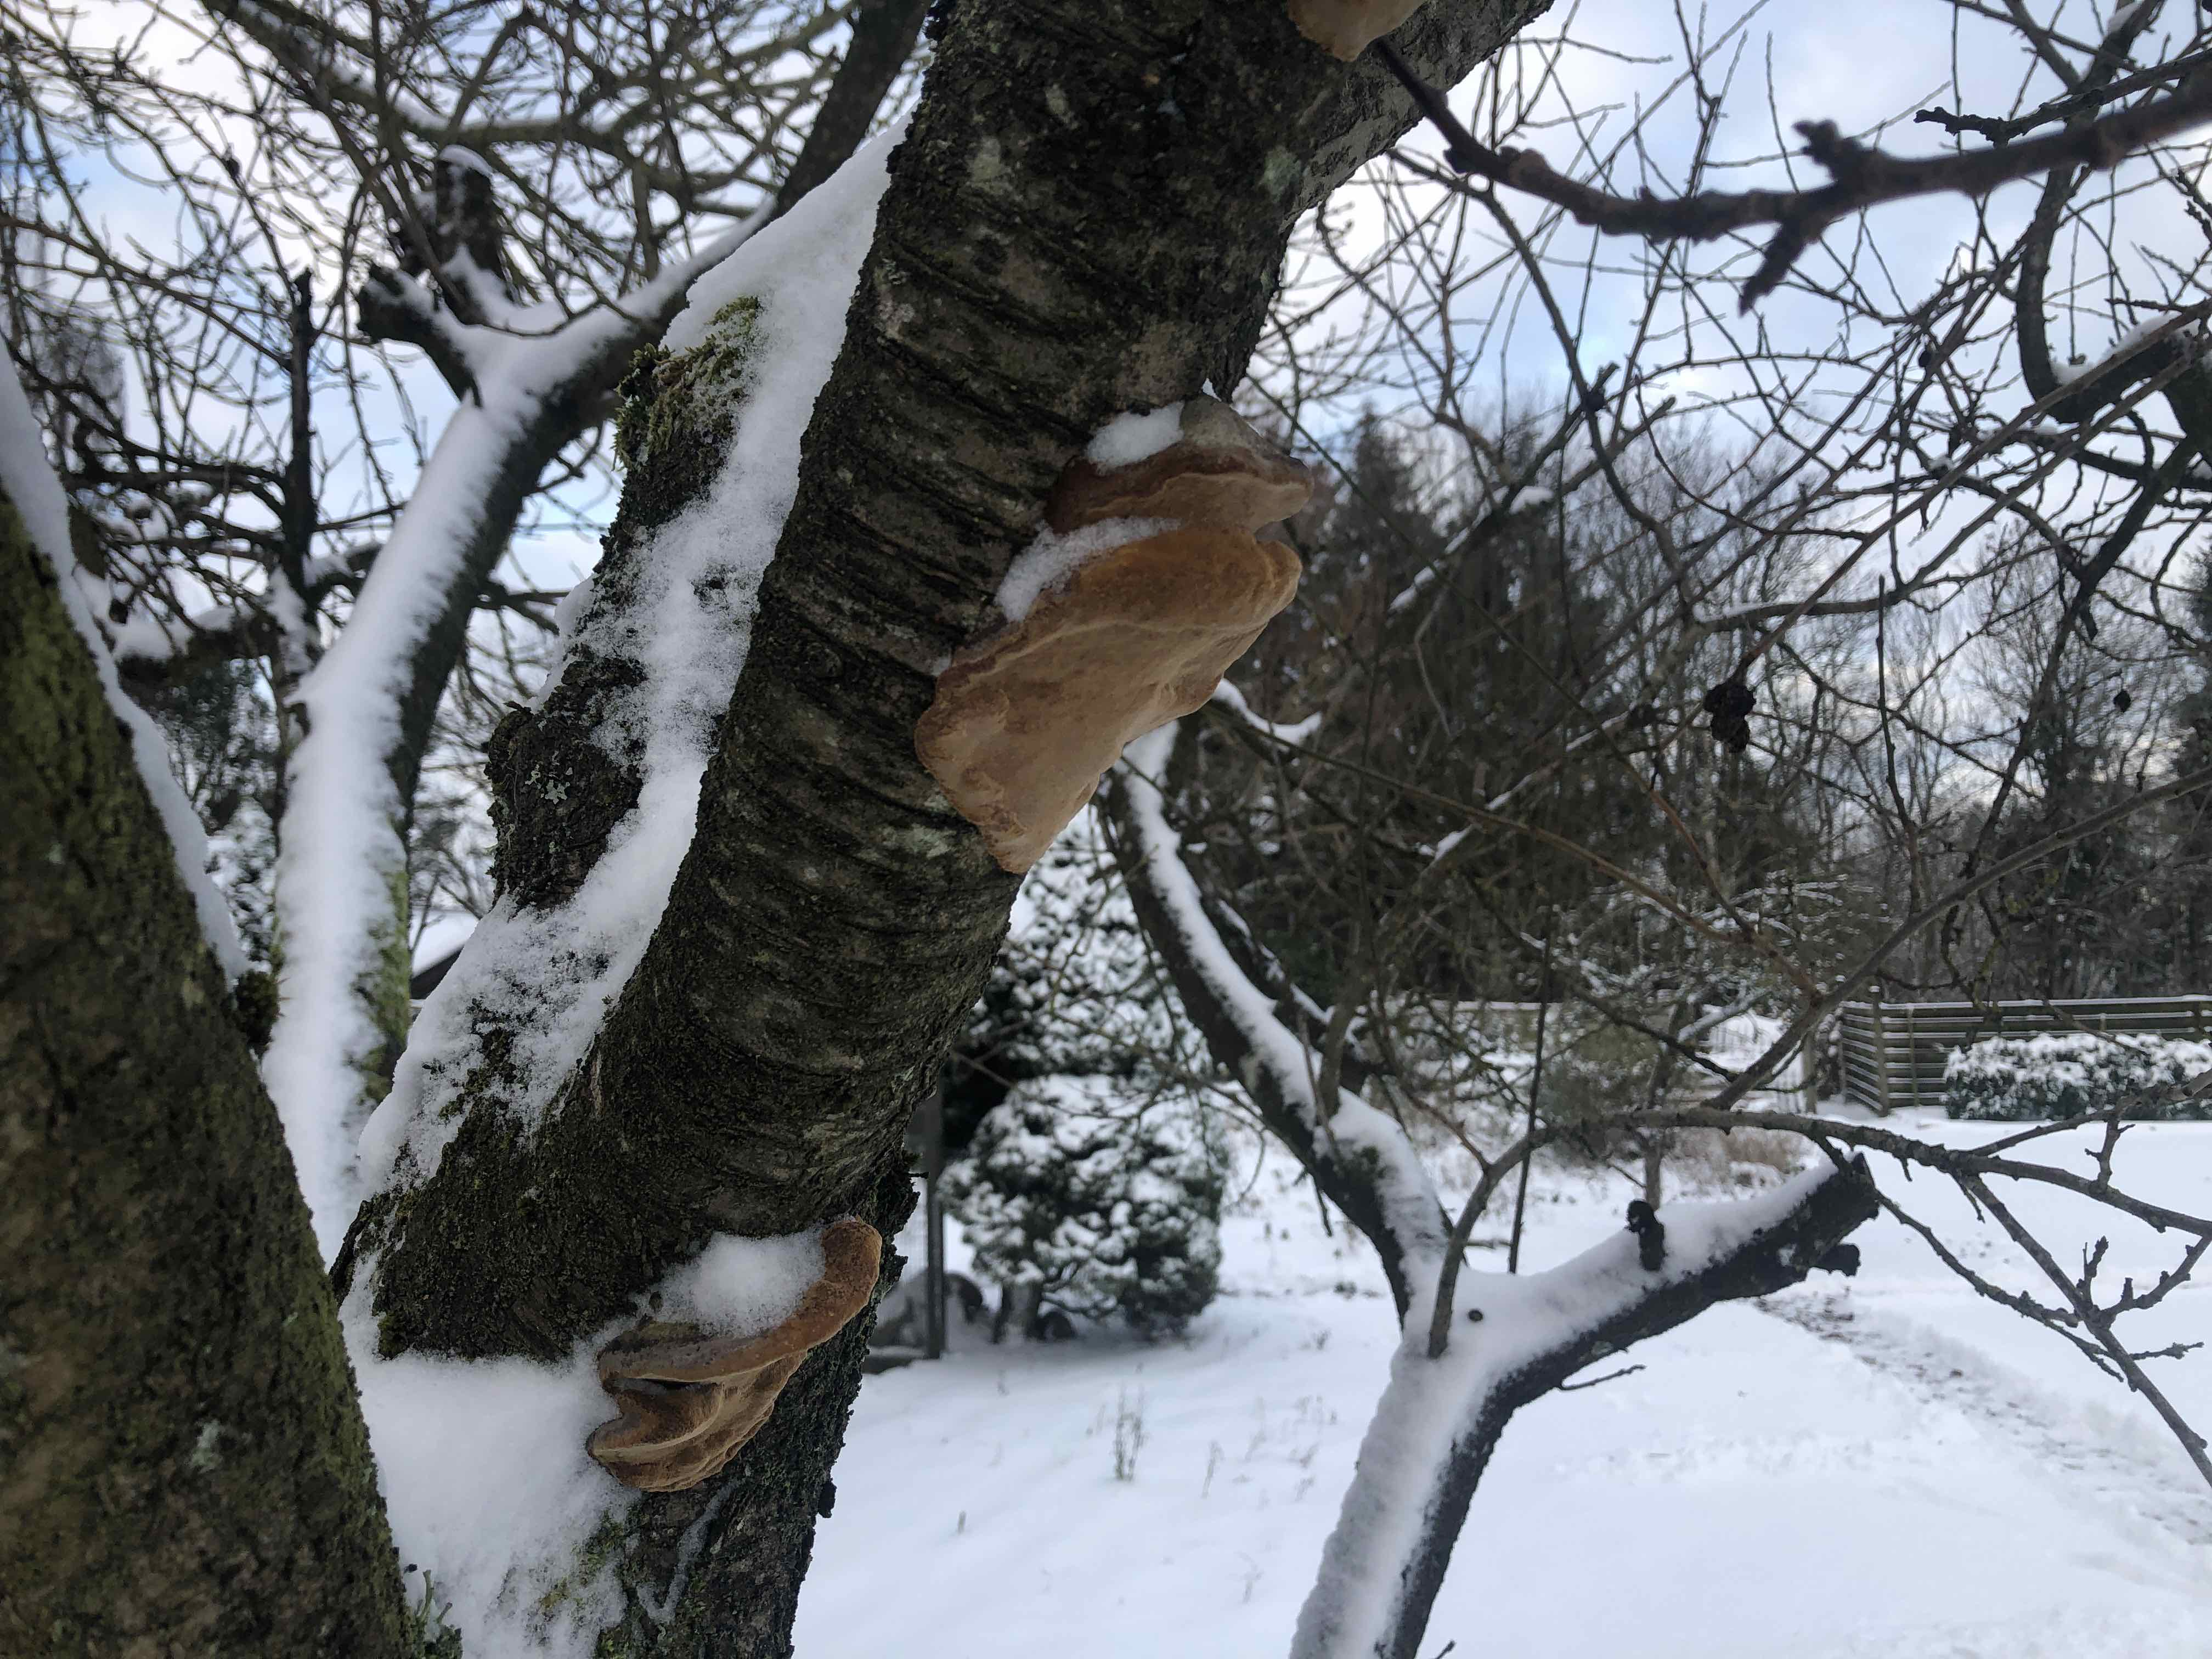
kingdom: Fungi
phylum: Basidiomycota
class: Agaricomycetes
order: Hymenochaetales
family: Hymenochaetaceae
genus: Phellinus
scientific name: Phellinus pomaceus
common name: blomme-ildporesvamp
